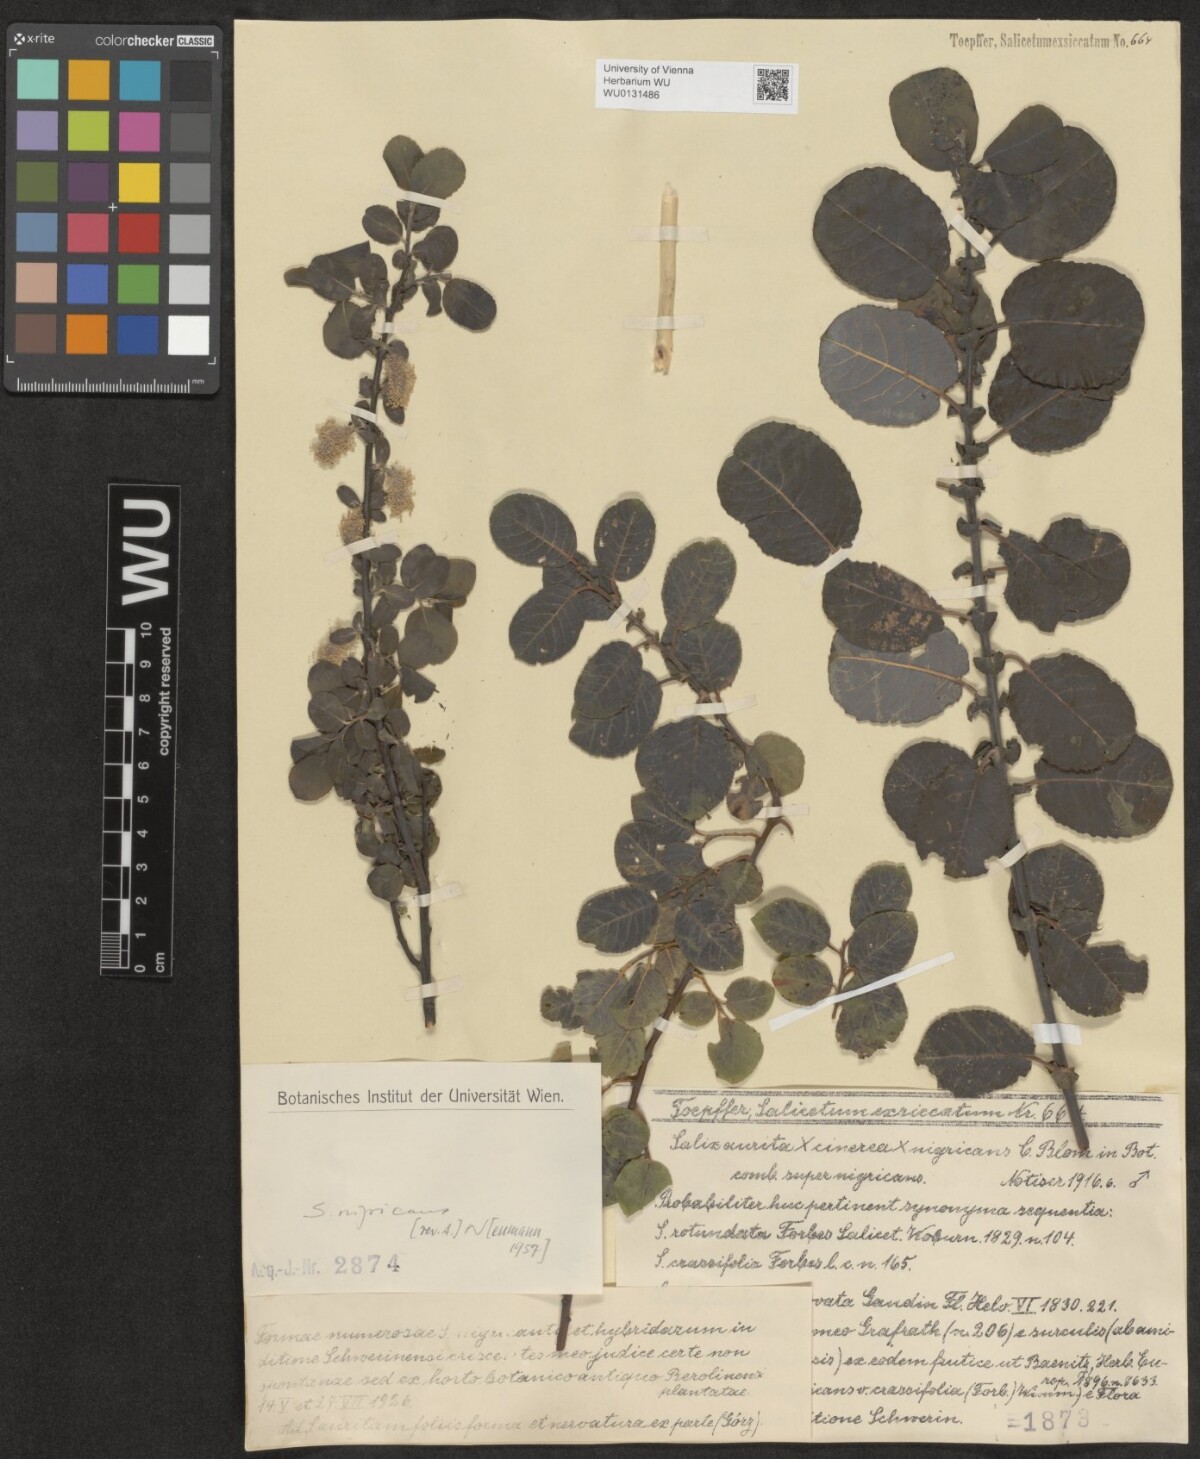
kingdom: Plantae
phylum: Tracheophyta
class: Magnoliopsida
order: Malpighiales
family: Salicaceae
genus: Salix
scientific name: Salix myrsinifolia
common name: Dark-leaved willow
